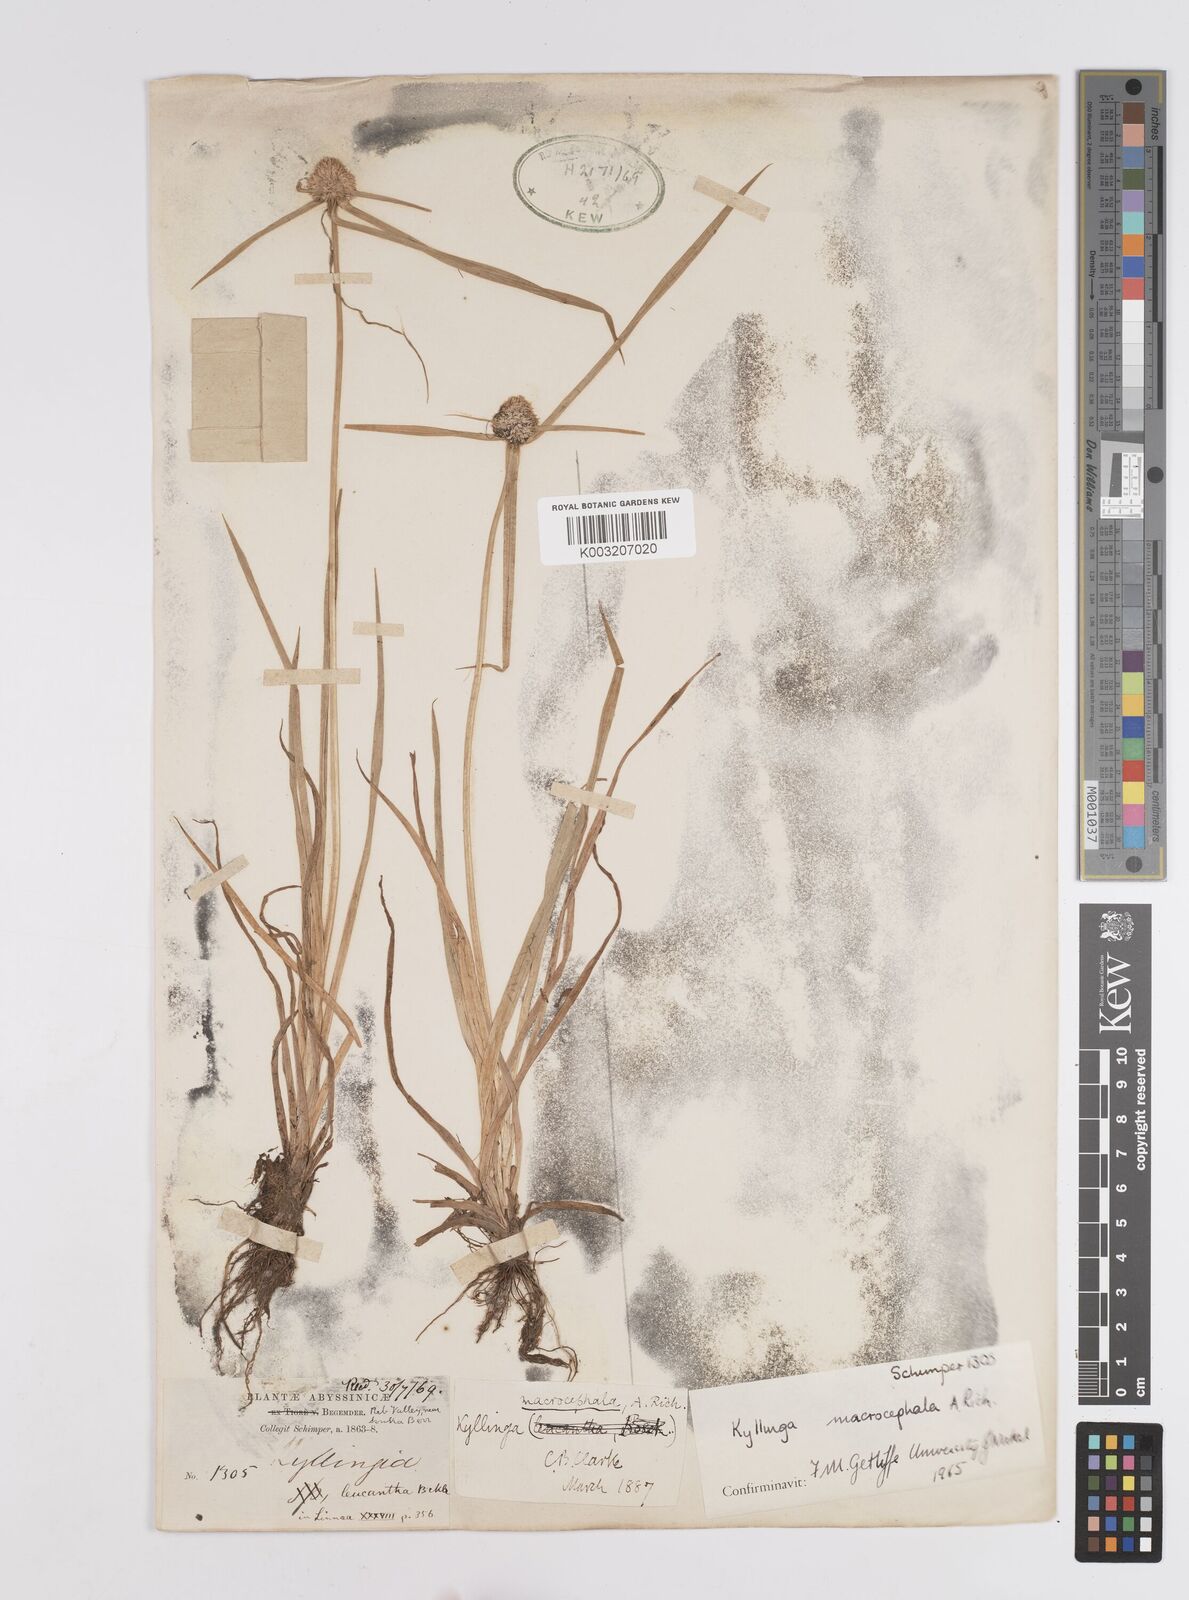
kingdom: Plantae
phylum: Tracheophyta
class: Liliopsida
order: Poales
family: Cyperaceae
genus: Cyperus
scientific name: Cyperus
